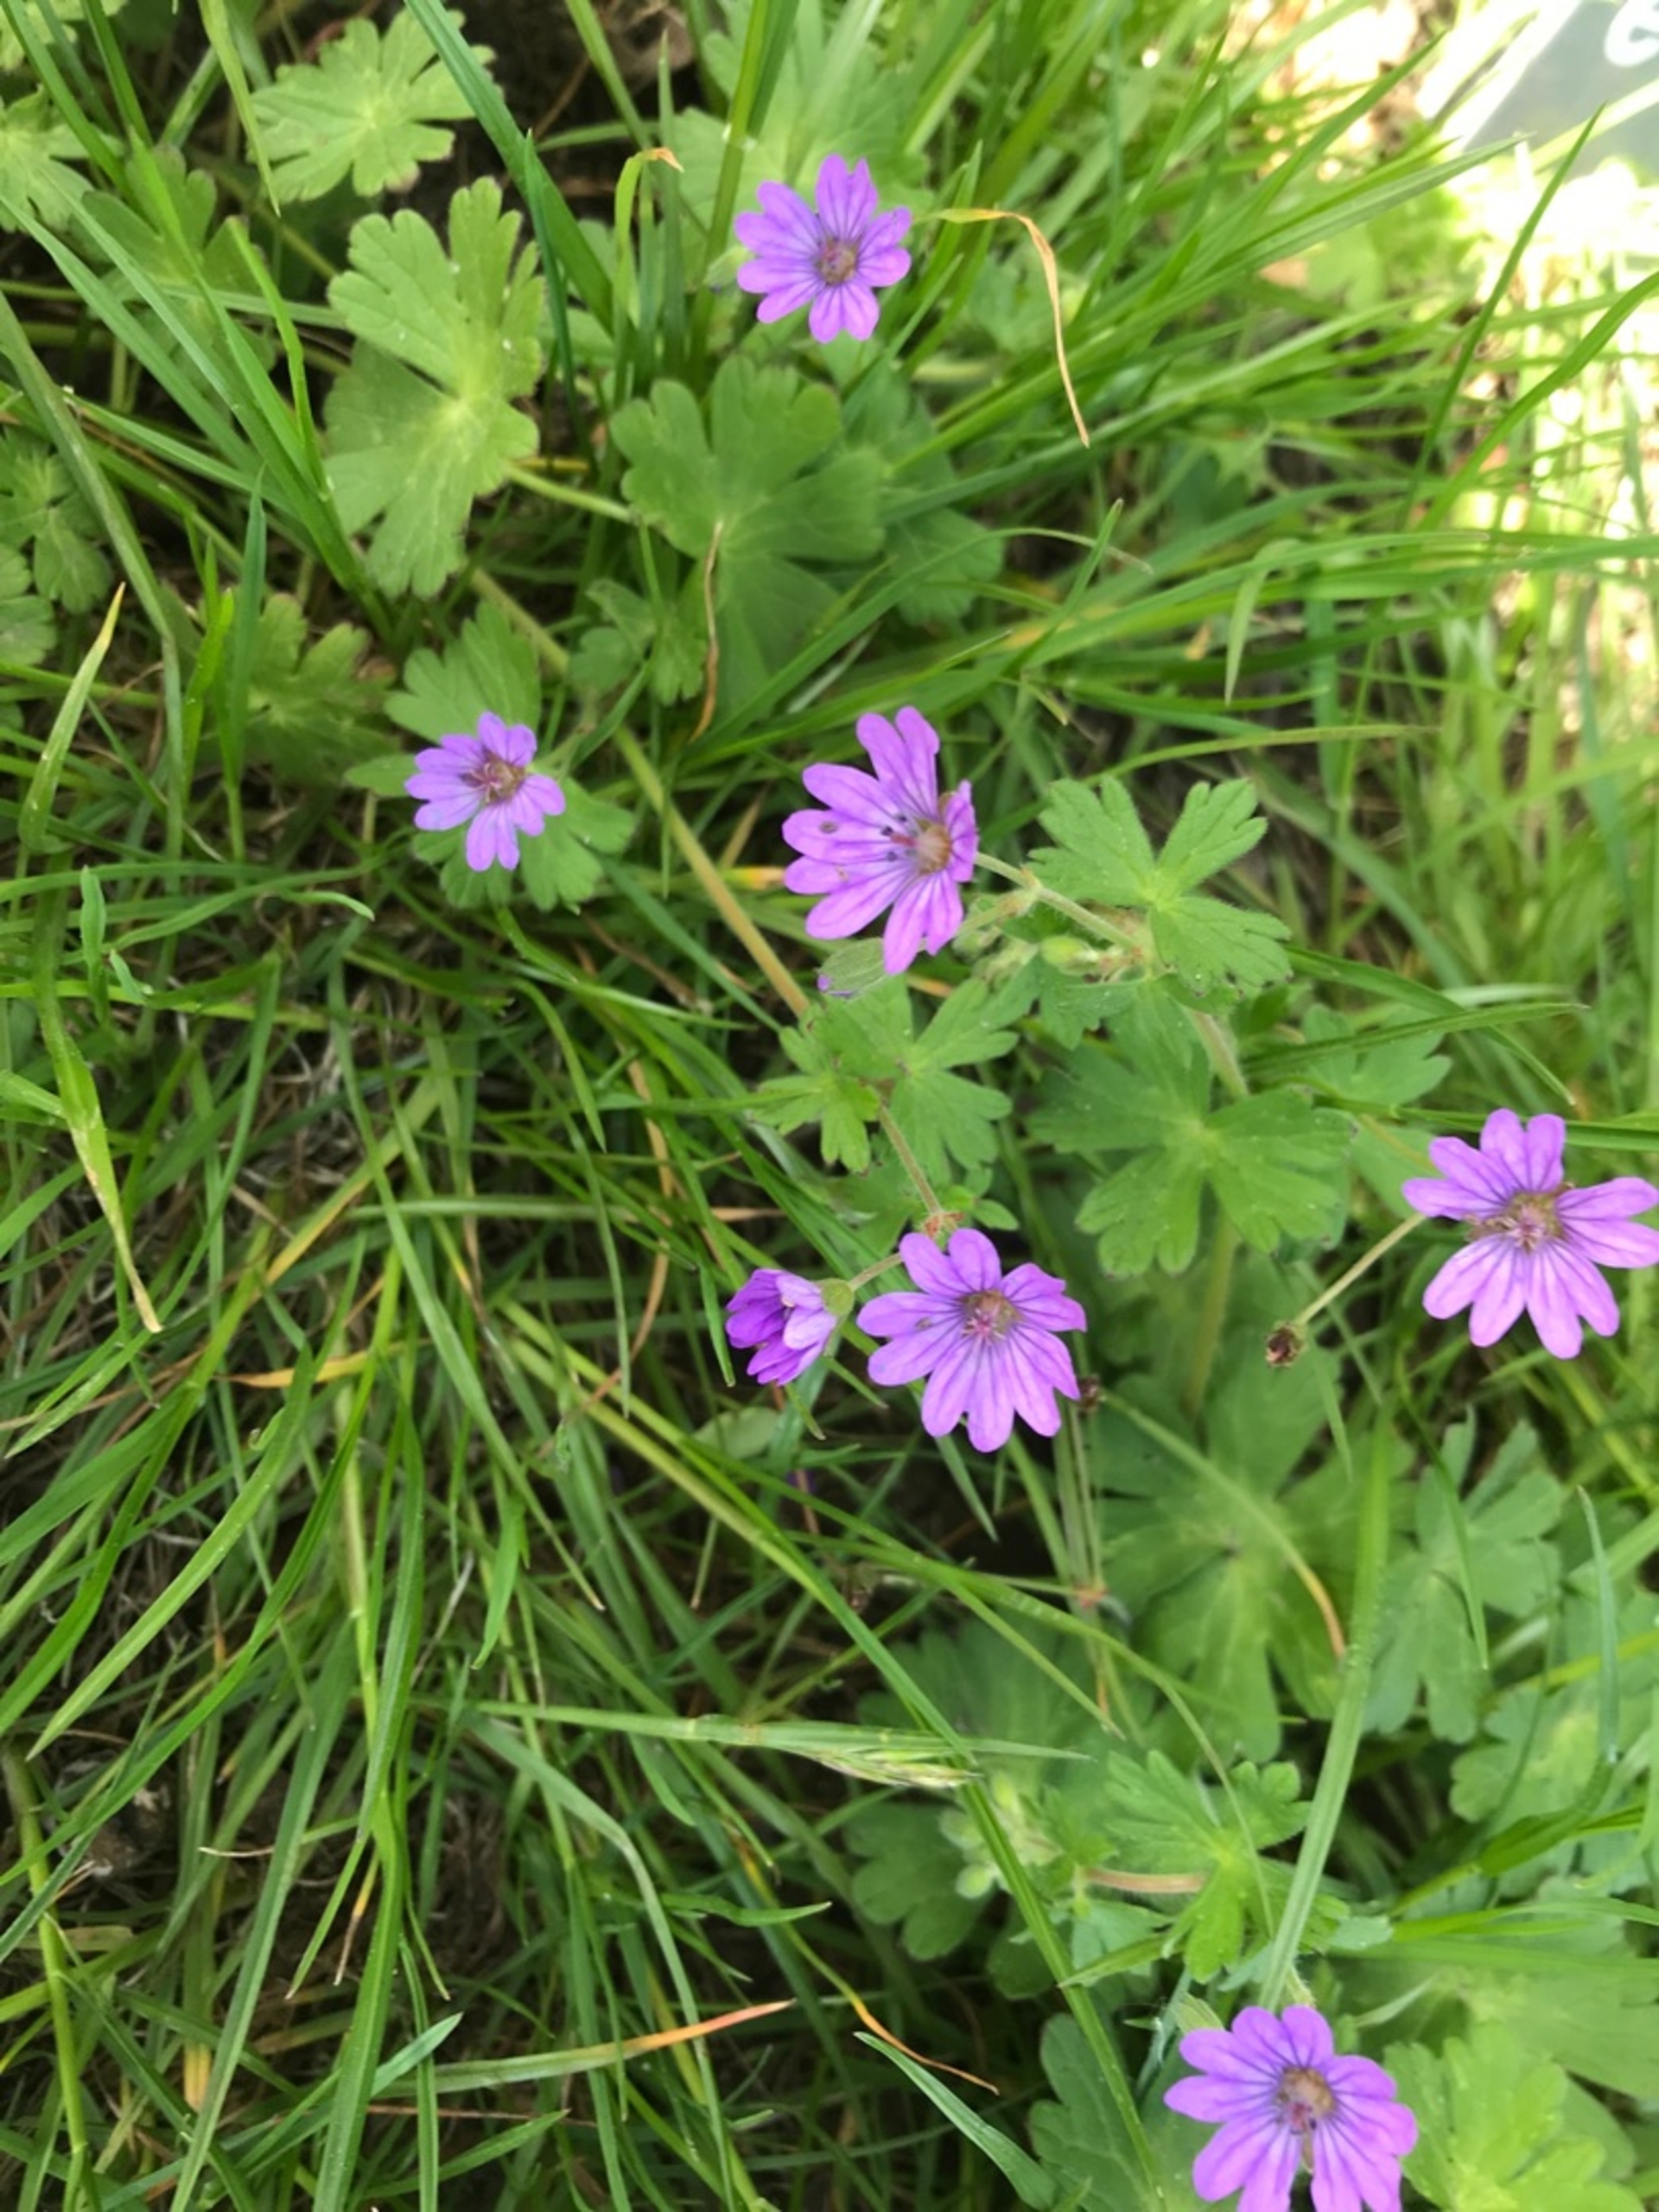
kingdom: Plantae
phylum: Tracheophyta
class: Magnoliopsida
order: Geraniales
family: Geraniaceae
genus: Geranium
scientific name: Geranium pyrenaicum
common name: Pyrenæisk storkenæb
